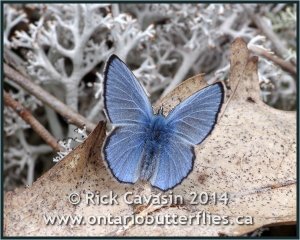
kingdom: Animalia
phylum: Arthropoda
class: Insecta
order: Lepidoptera
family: Lycaenidae
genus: Glaucopsyche
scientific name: Glaucopsyche lygdamus
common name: Silvery Blue
